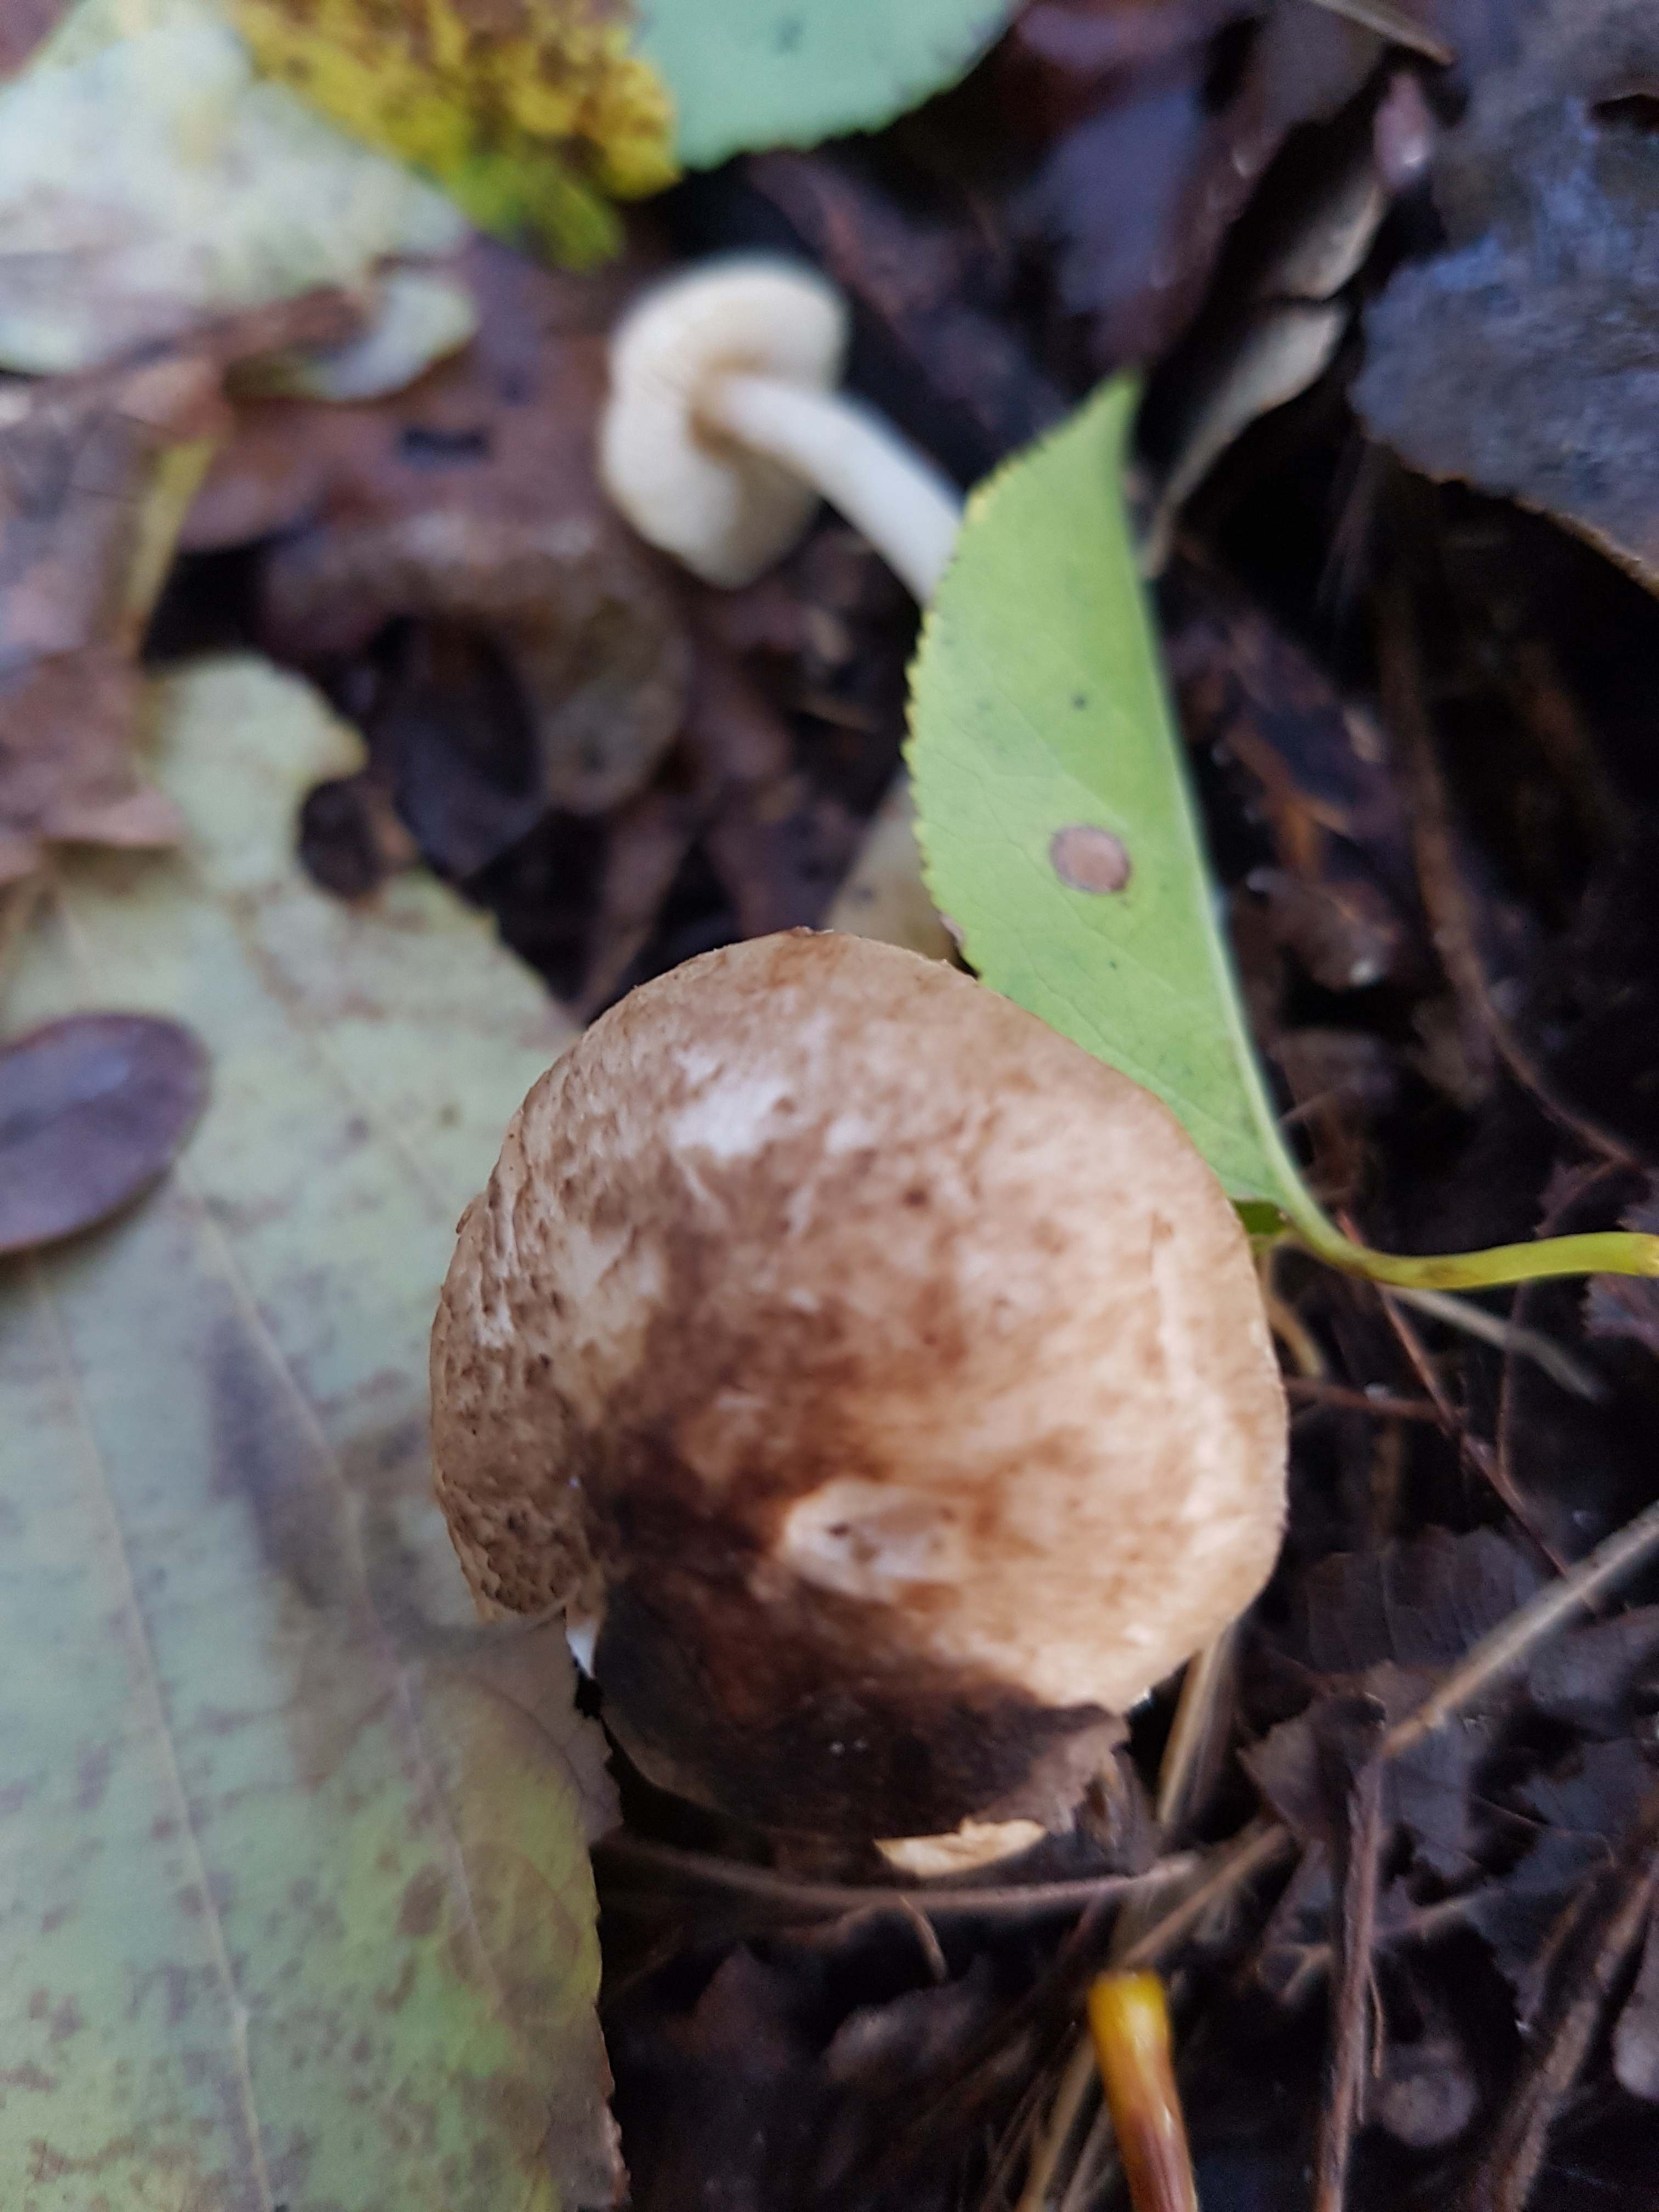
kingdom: Fungi
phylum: Basidiomycota
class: Agaricomycetes
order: Agaricales
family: Tricholomataceae
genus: Tricholoma
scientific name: Tricholoma scalpturatum
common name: gulplettet ridderhat
